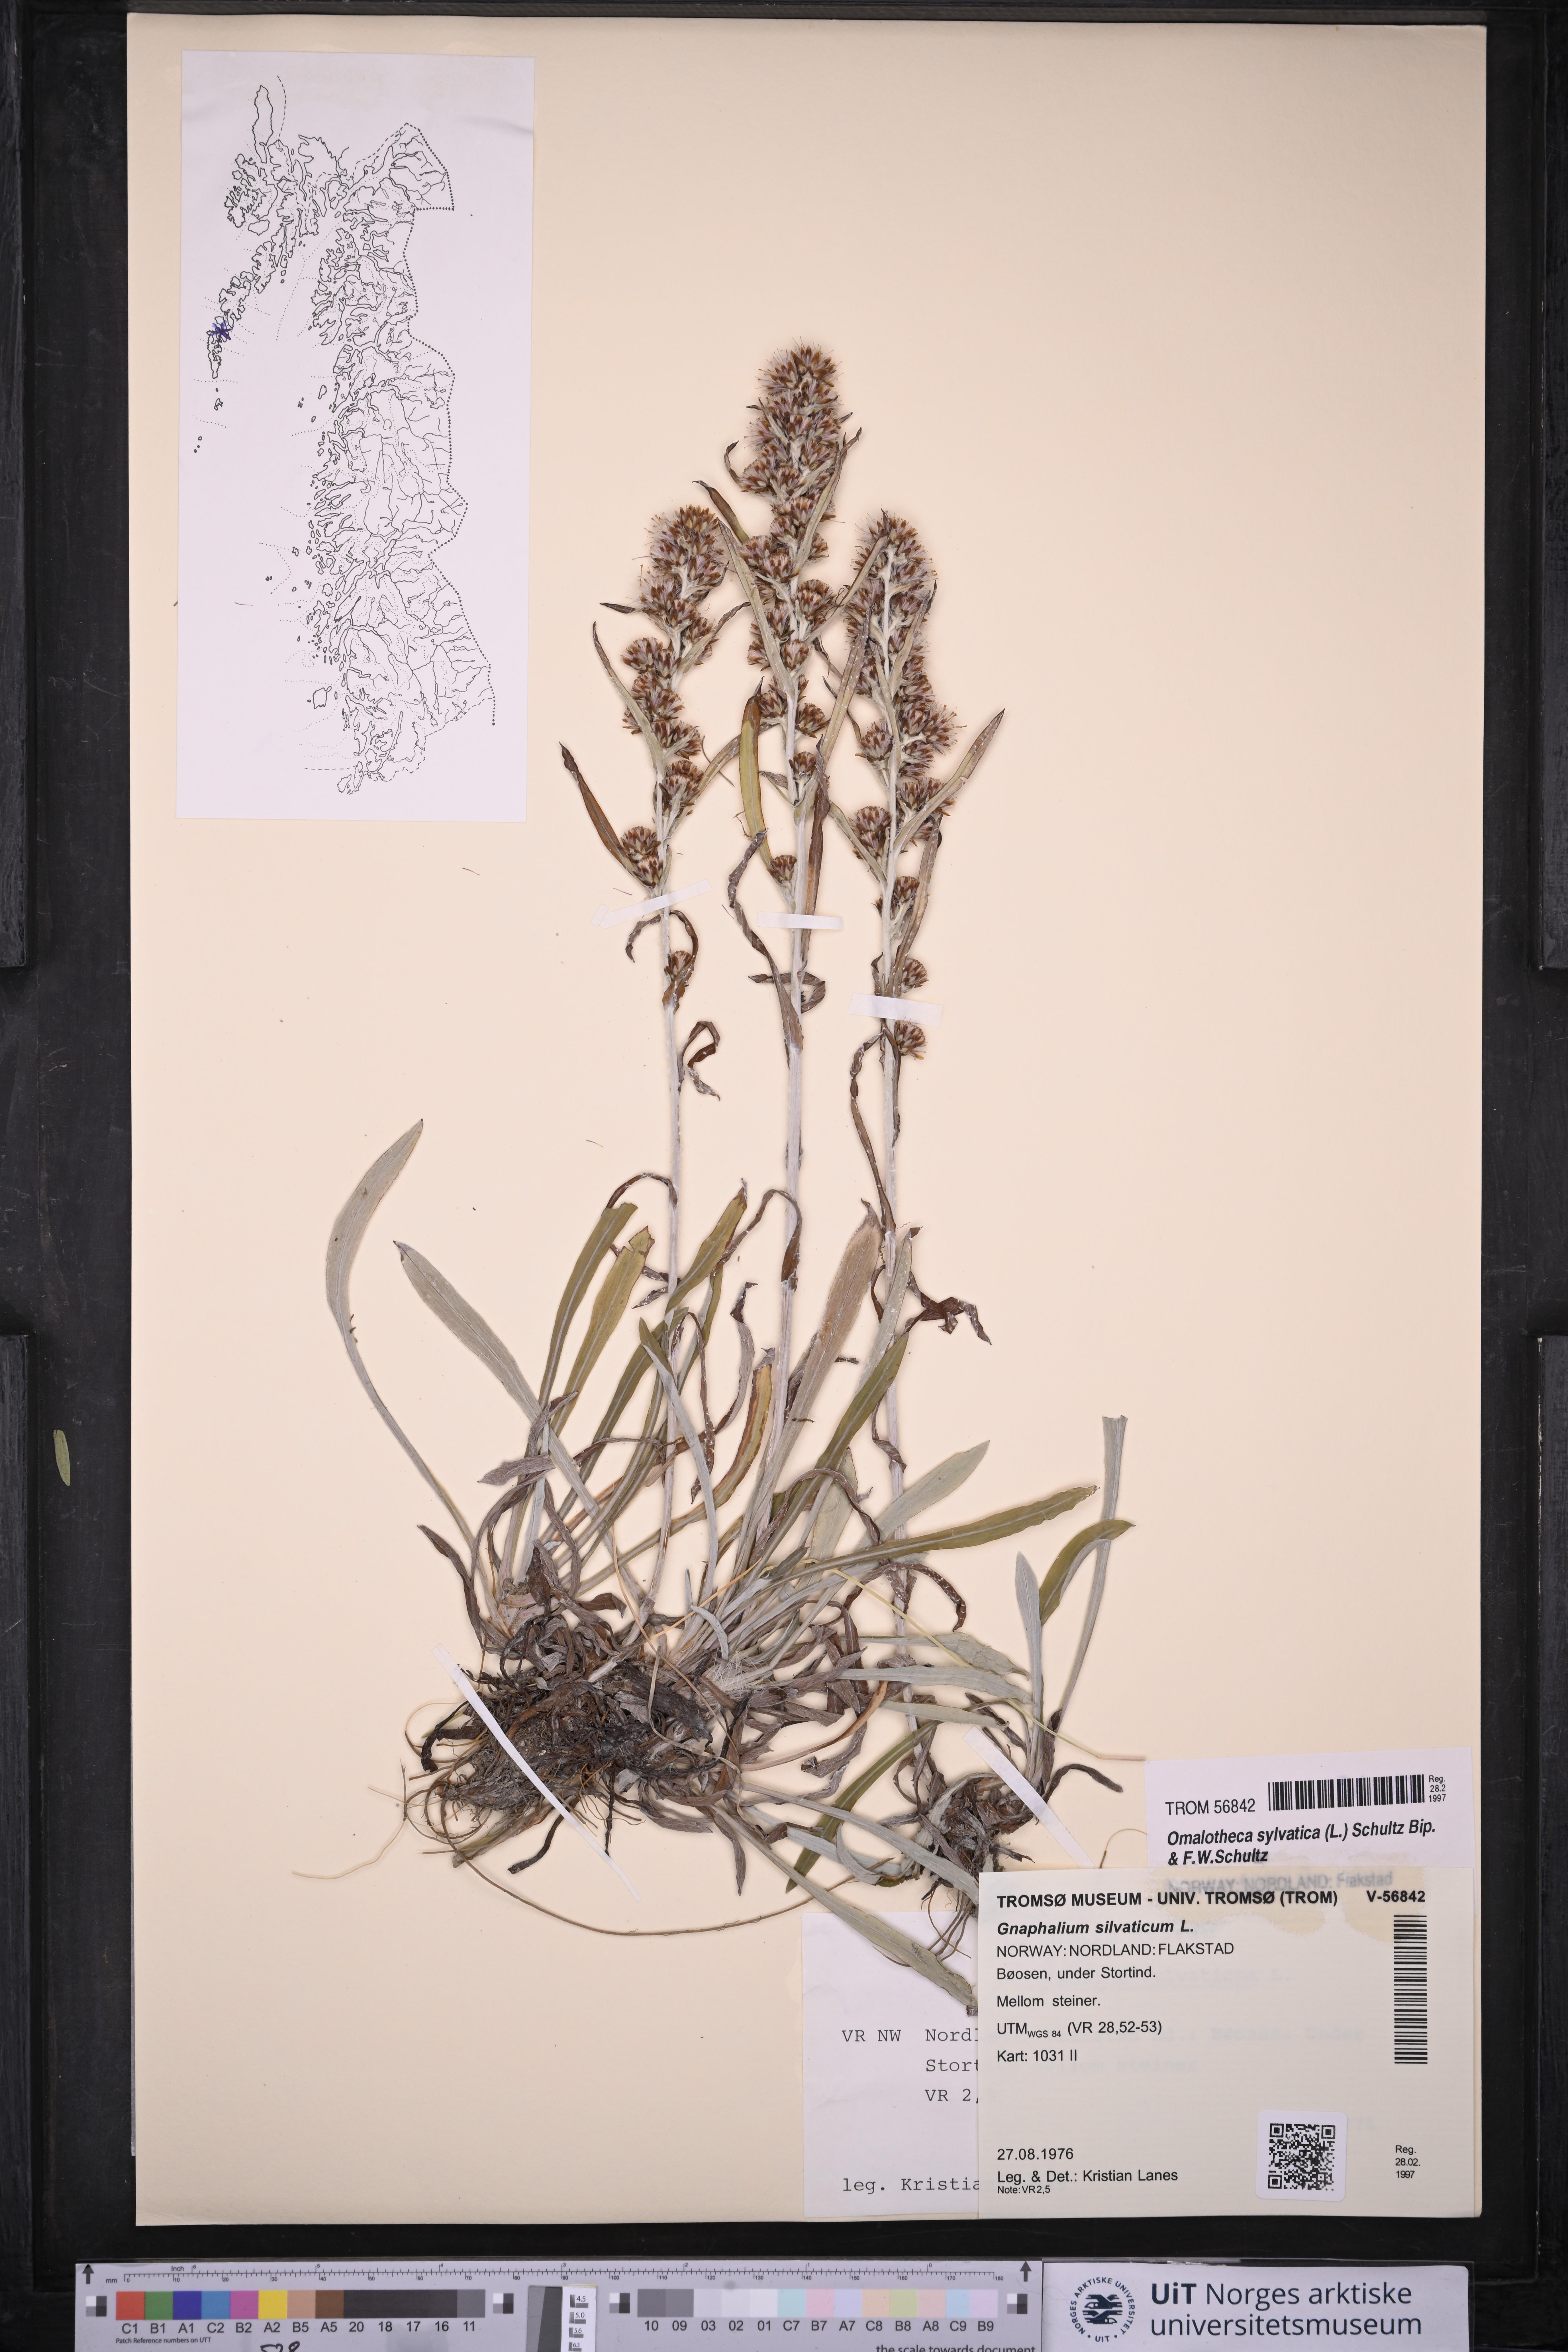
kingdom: Plantae
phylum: Tracheophyta
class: Magnoliopsida
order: Asterales
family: Asteraceae
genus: Omalotheca
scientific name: Omalotheca sylvatica
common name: Heath cudweed
